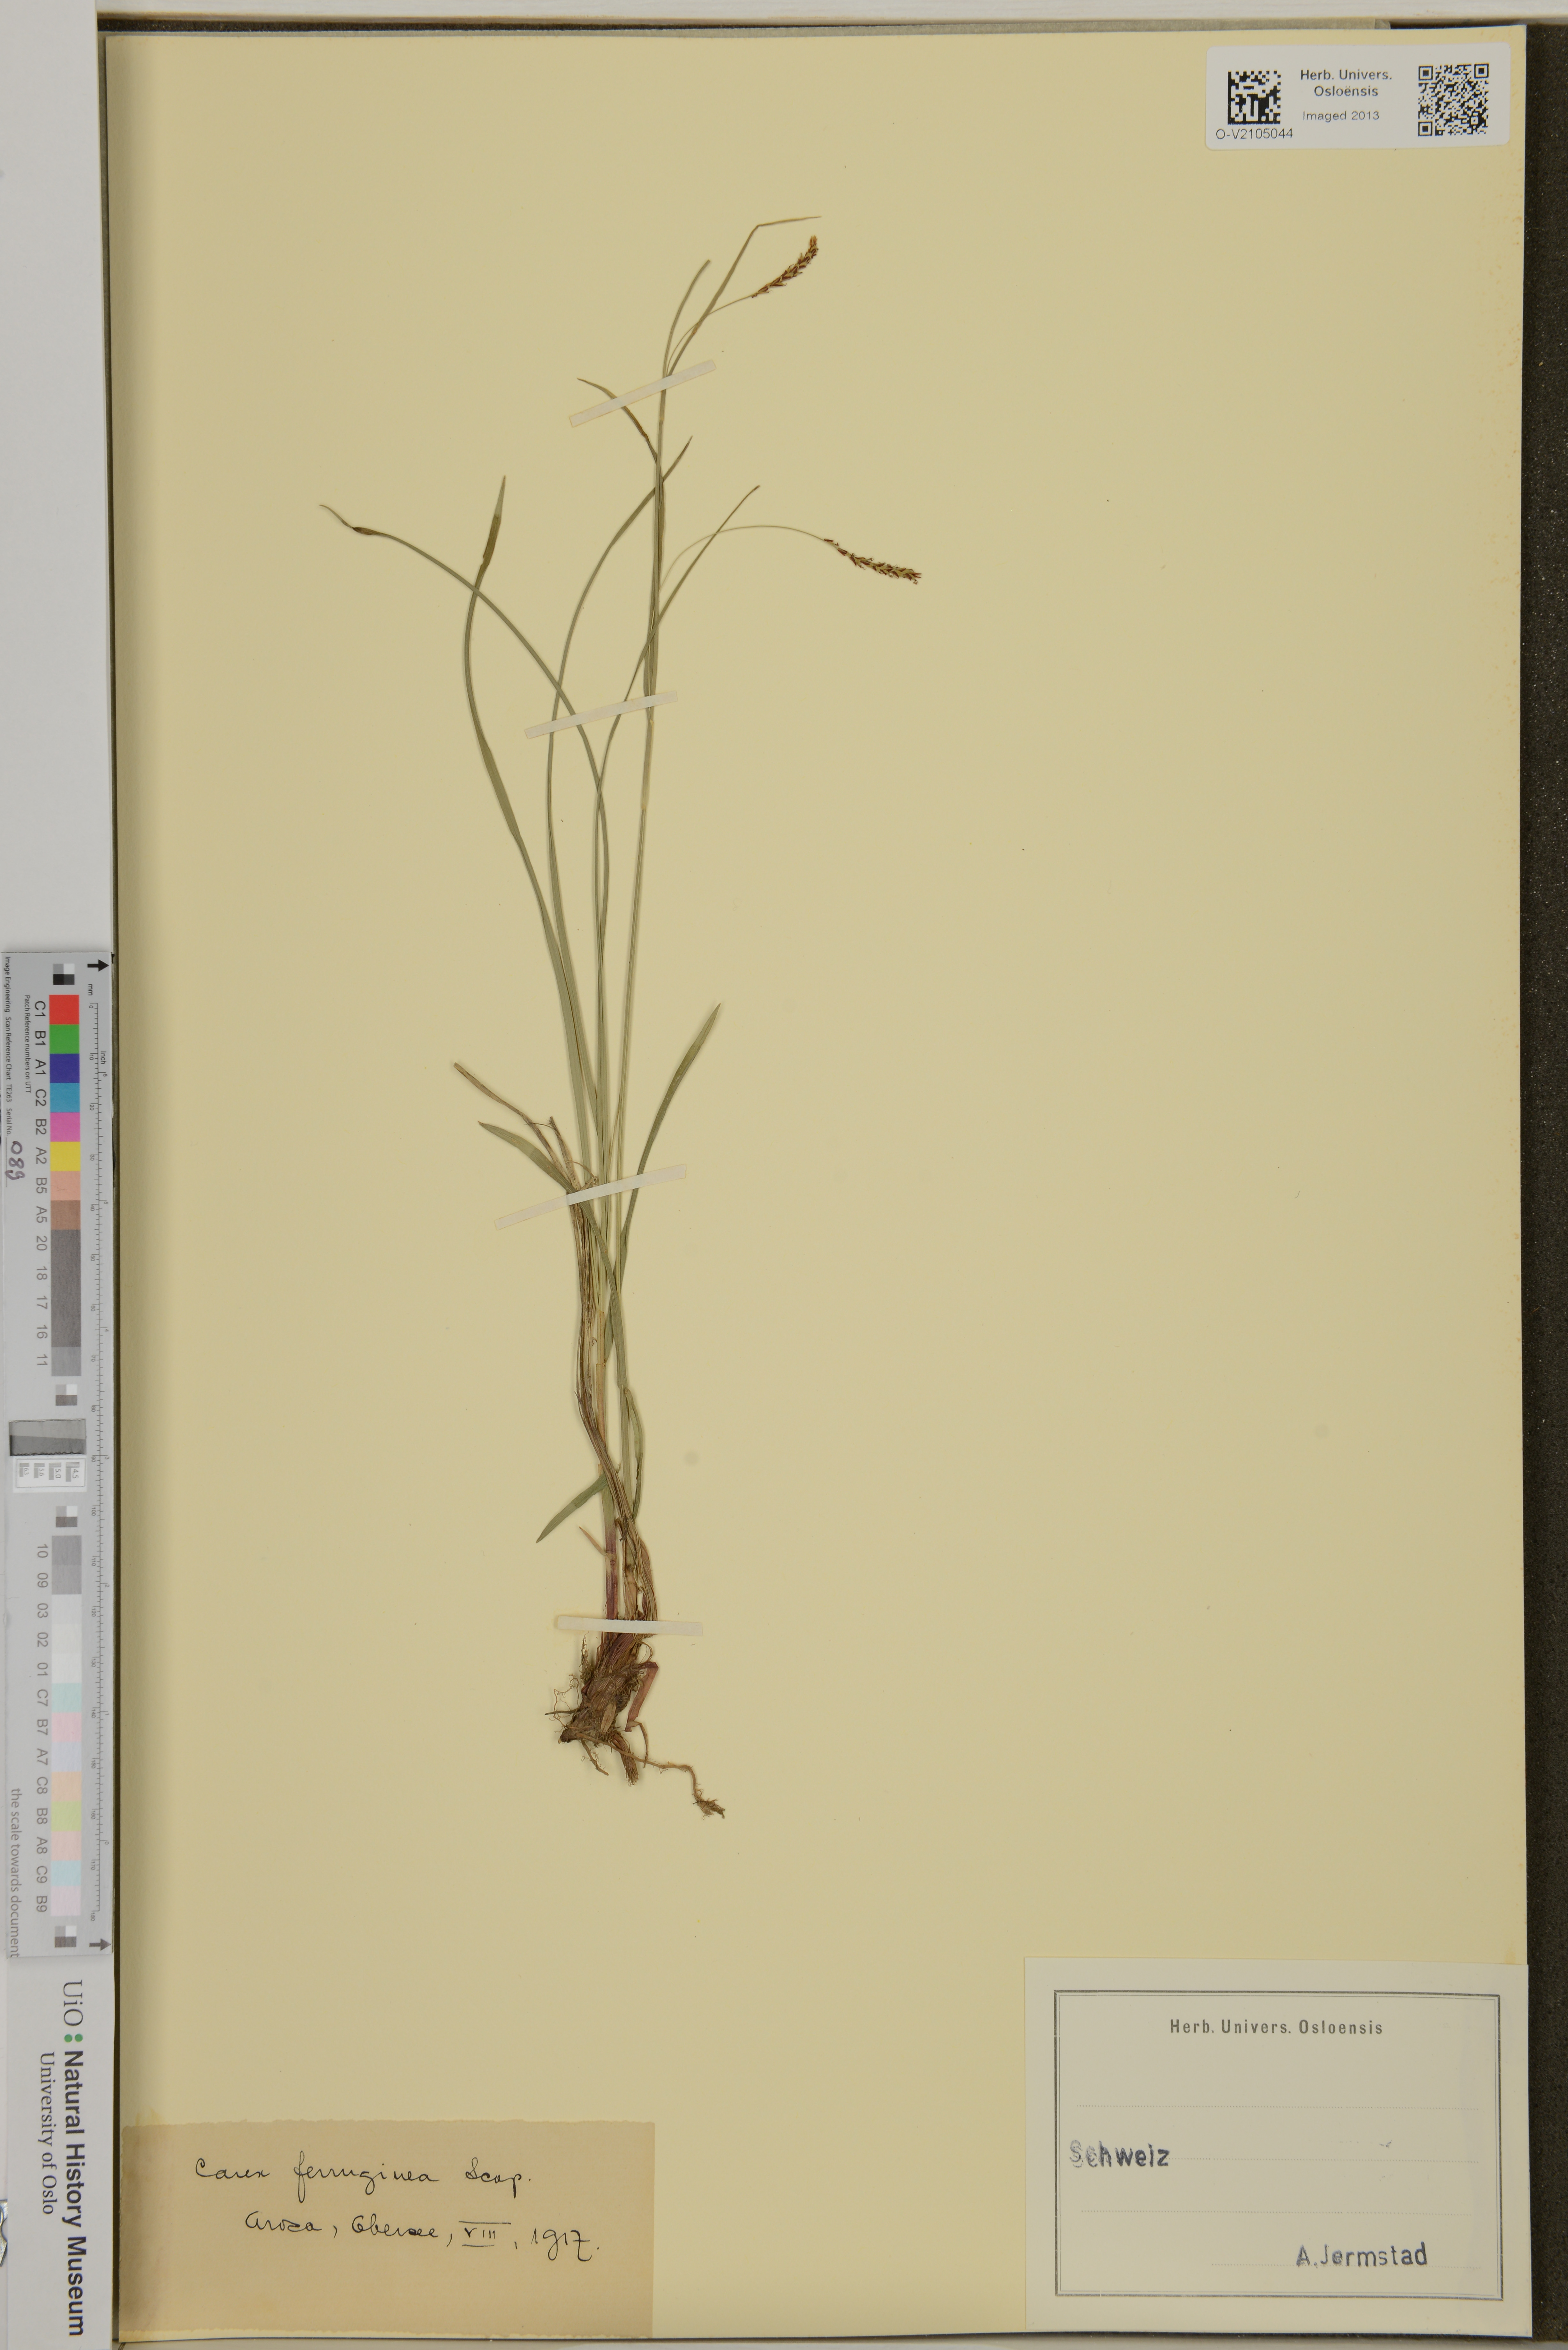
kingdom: Plantae
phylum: Tracheophyta
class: Liliopsida
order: Poales
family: Cyperaceae
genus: Carex
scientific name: Carex ferruginea
